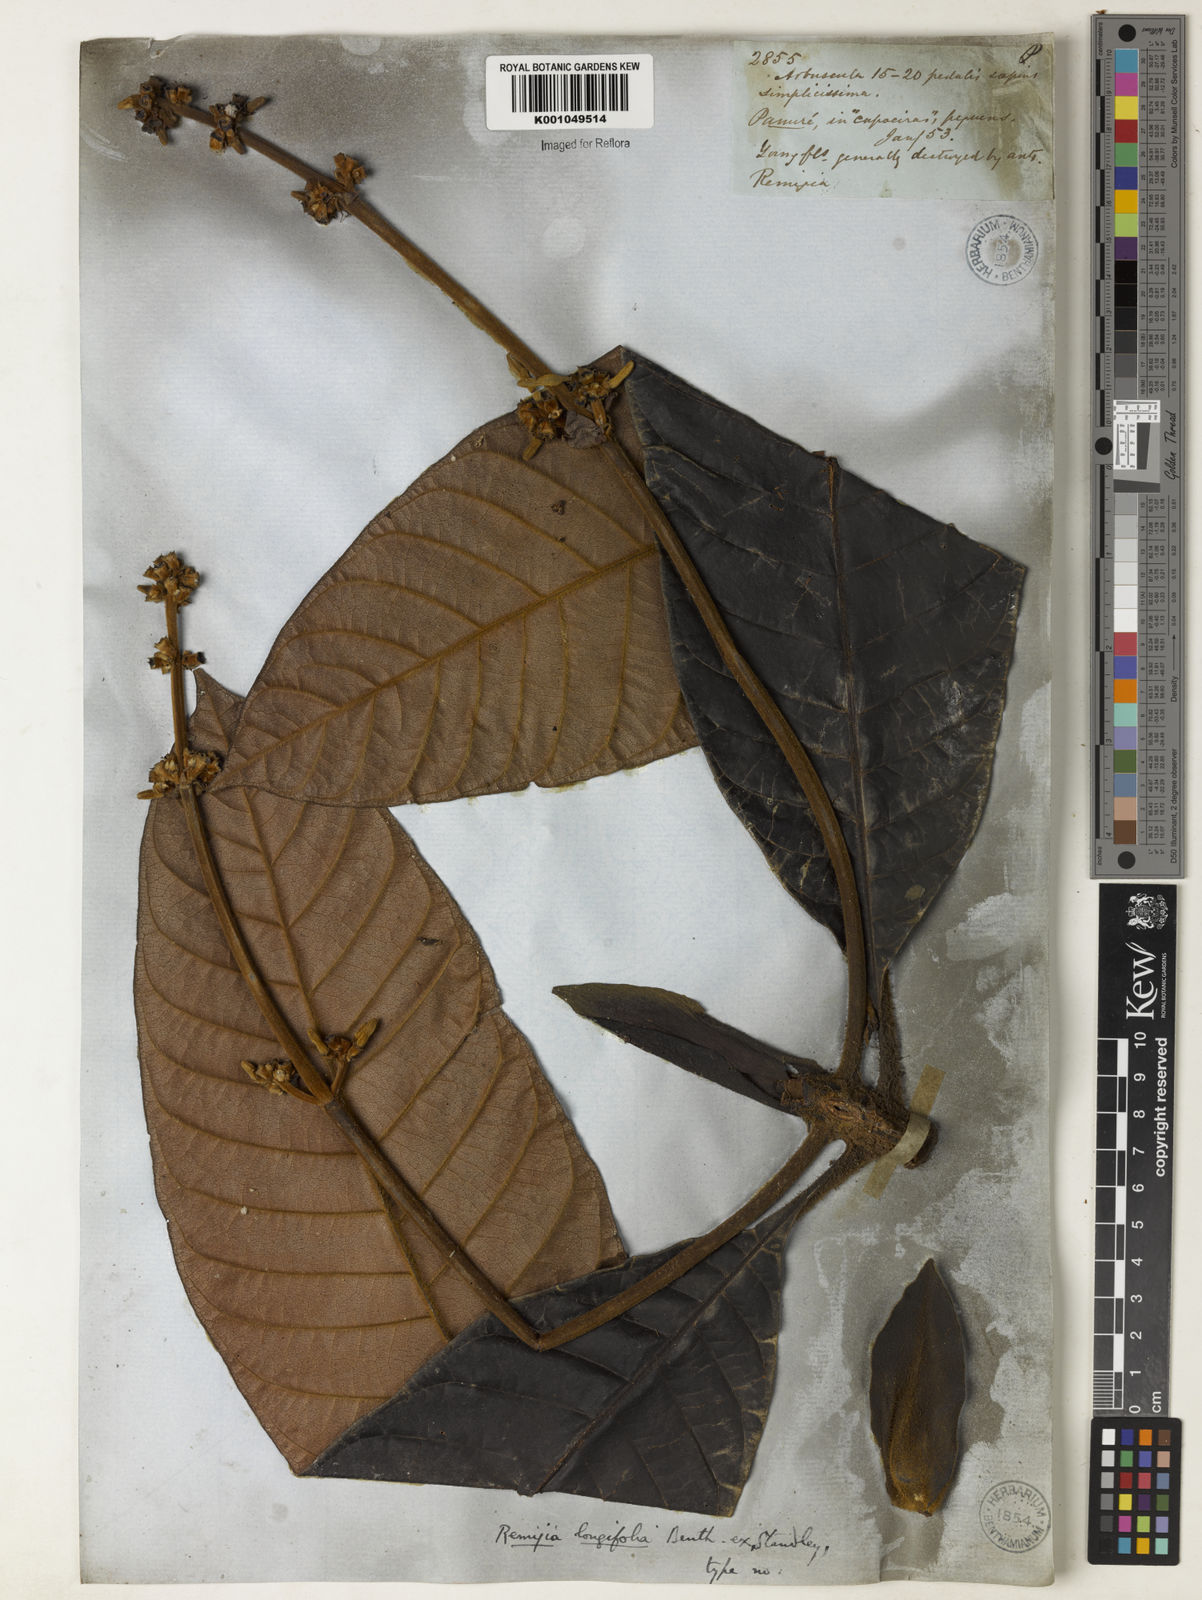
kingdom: Plantae
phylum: Tracheophyta
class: Magnoliopsida
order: Gentianales
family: Rubiaceae
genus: Remijia
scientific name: Remijia longifolia
